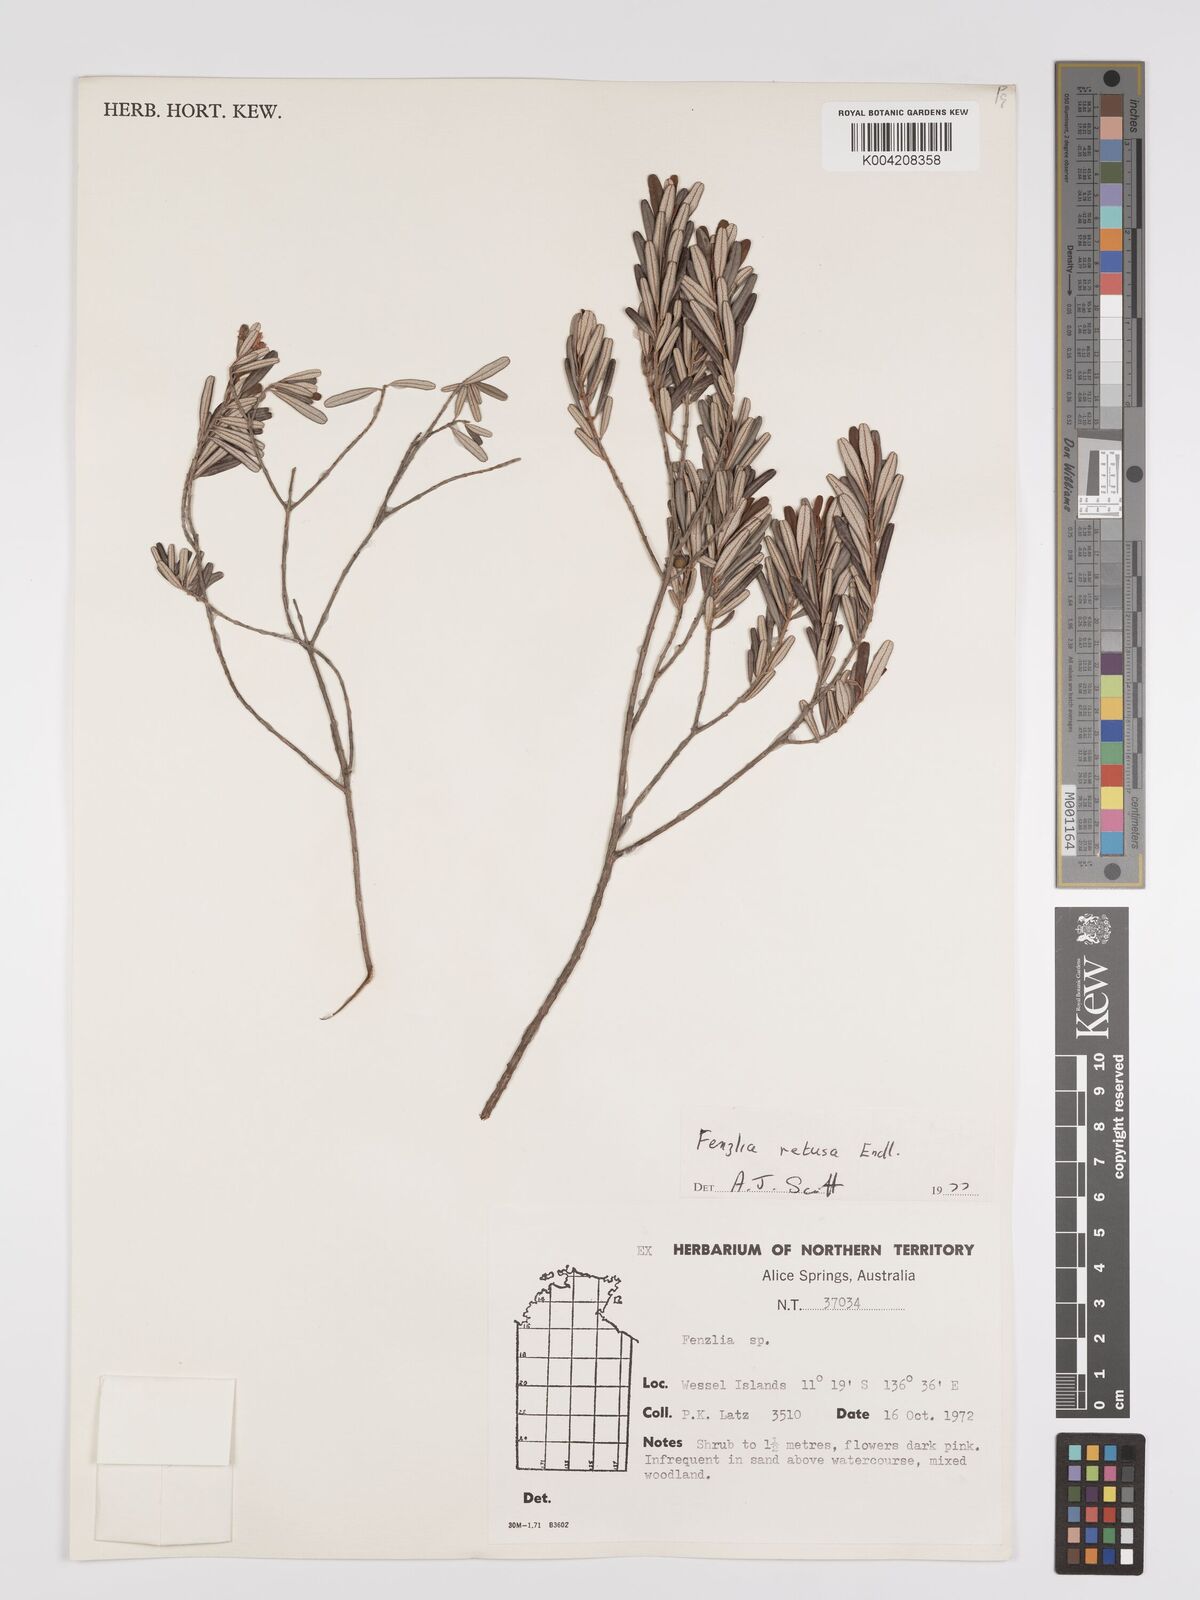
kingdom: Plantae
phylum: Tracheophyta
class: Magnoliopsida
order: Myrtales
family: Myrtaceae
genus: Lithomyrtus
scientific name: Lithomyrtus retusa
